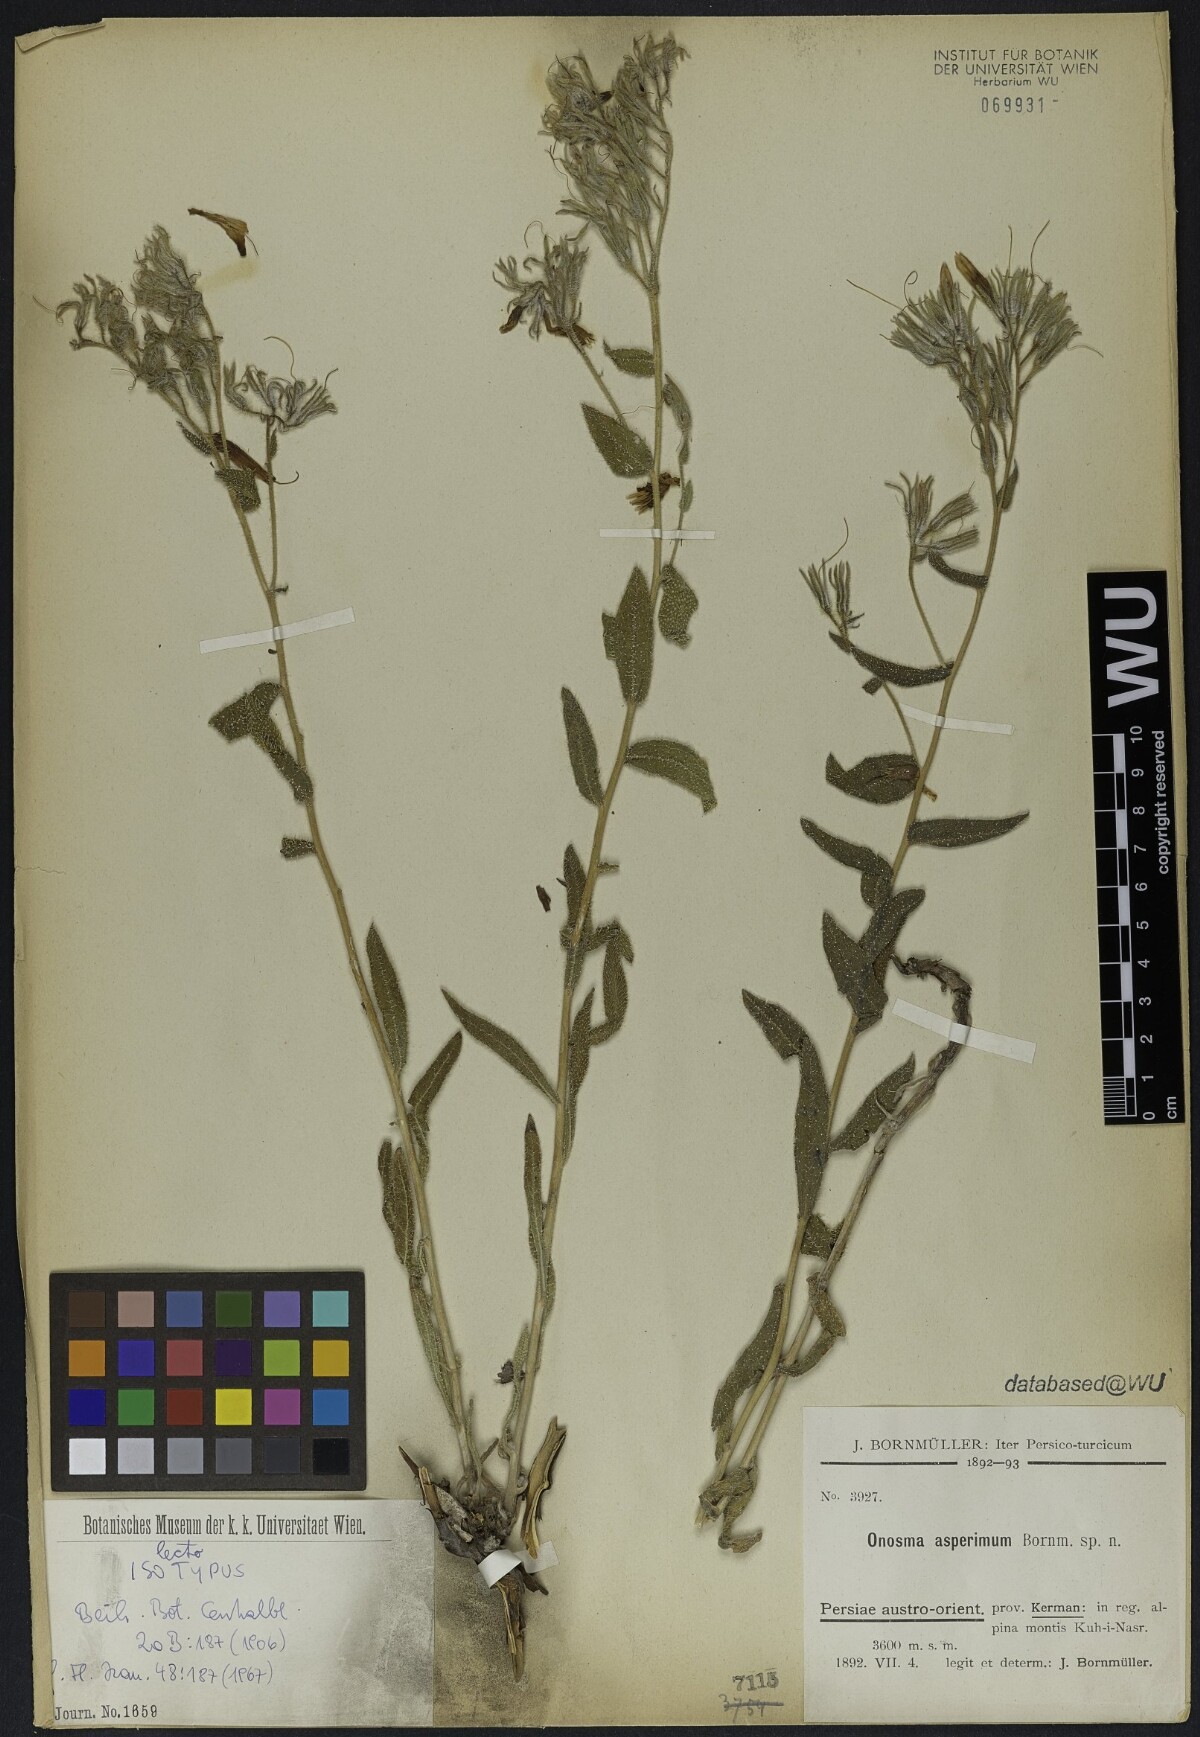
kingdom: Plantae
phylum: Tracheophyta
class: Magnoliopsida
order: Boraginales
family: Boraginaceae
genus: Onosma
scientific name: Onosma asperrima
